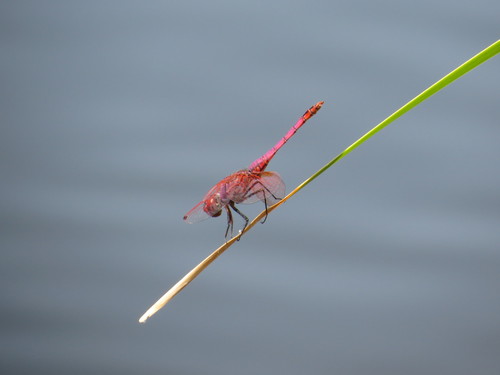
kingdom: Animalia
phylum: Arthropoda
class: Insecta
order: Odonata
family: Libellulidae
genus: Trithemis
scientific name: Trithemis annulata
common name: Violet dropwing
